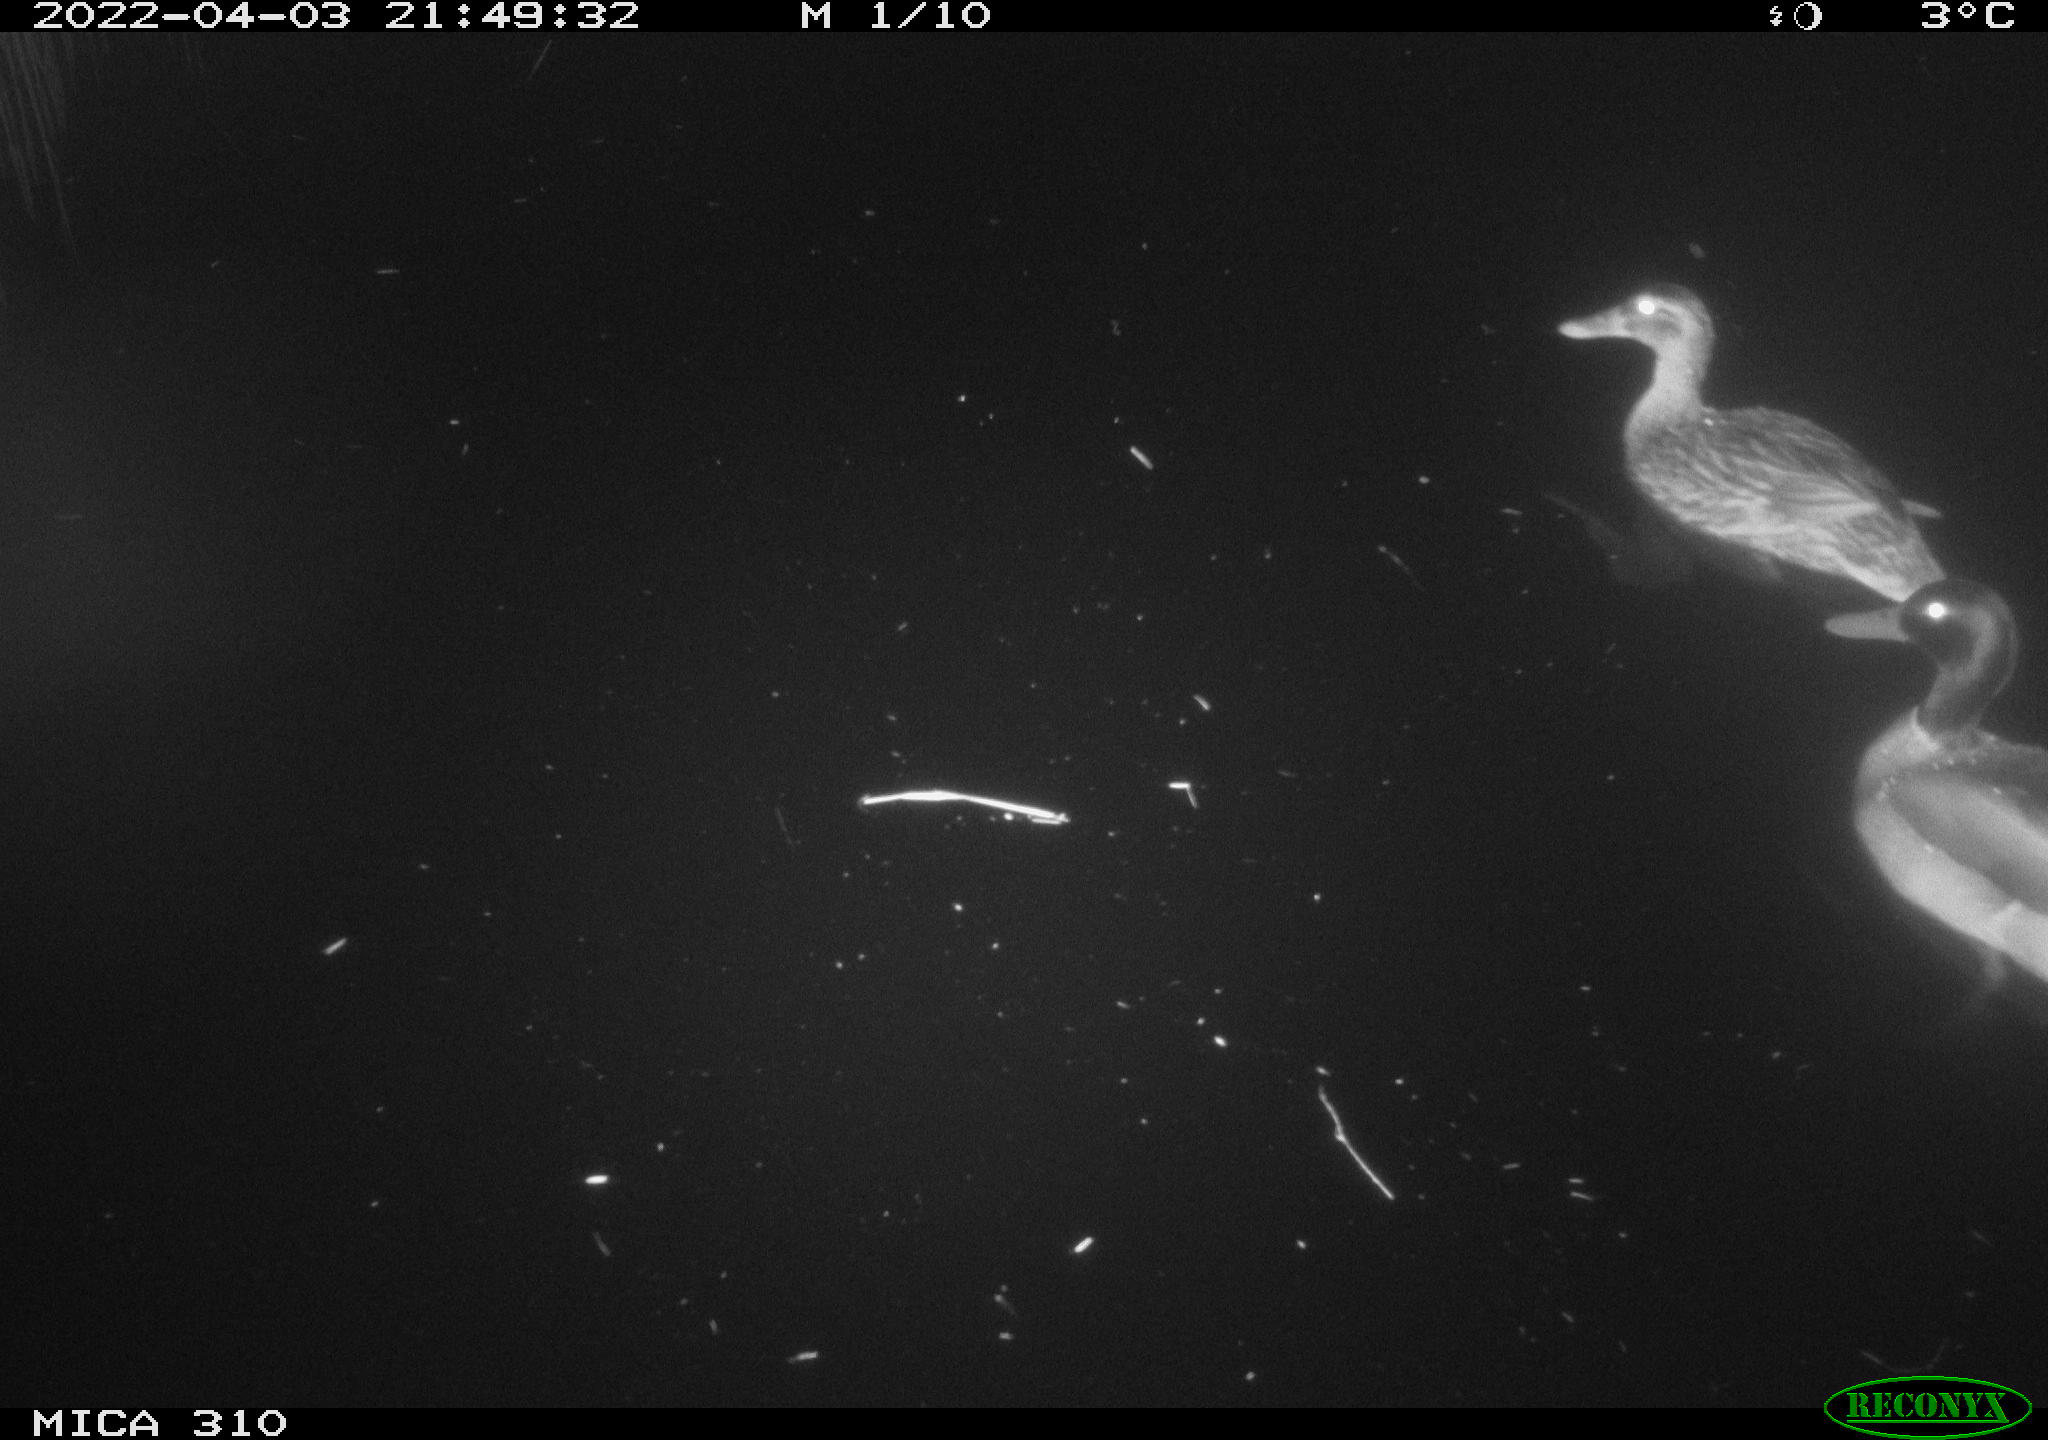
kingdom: Animalia
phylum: Chordata
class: Aves
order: Anseriformes
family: Anatidae
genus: Anas
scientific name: Anas platyrhynchos
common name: Mallard
